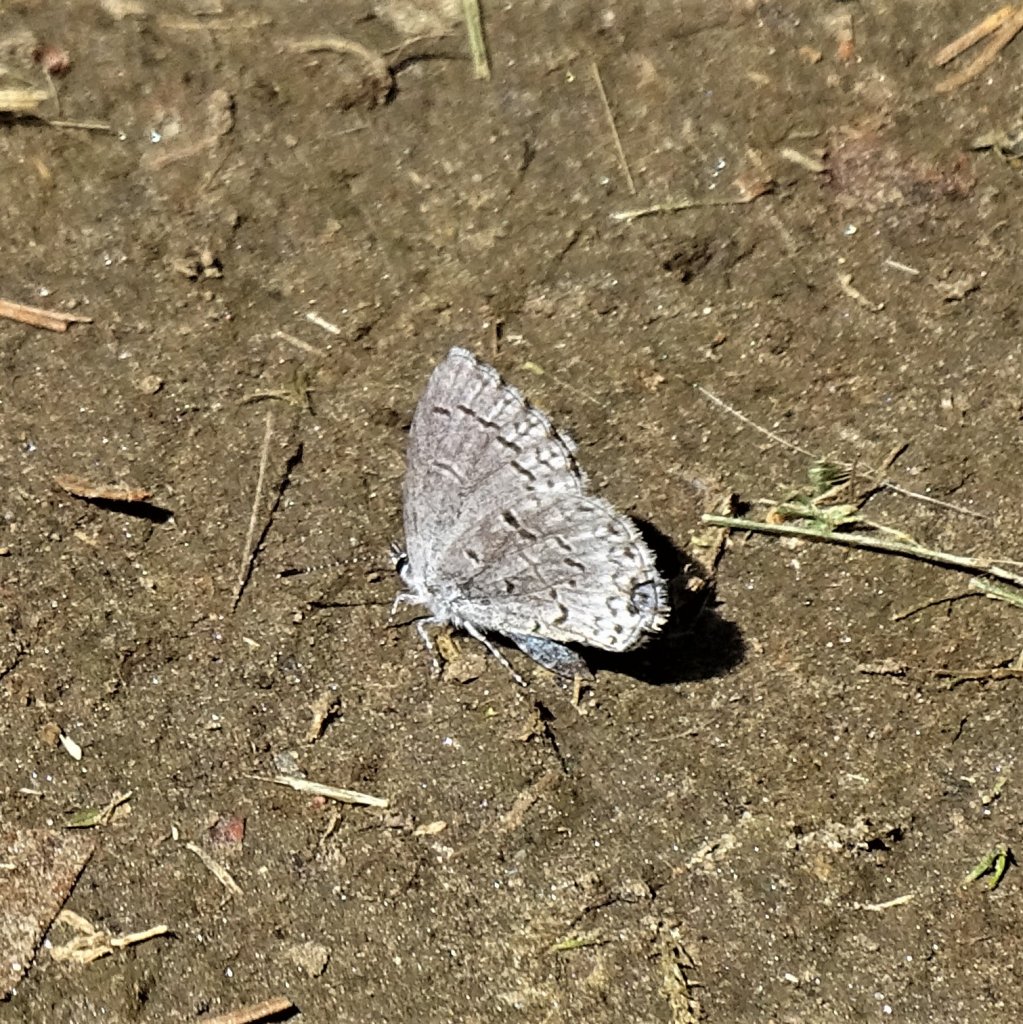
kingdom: Animalia
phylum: Arthropoda
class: Insecta
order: Lepidoptera
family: Lycaenidae
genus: Celastrina
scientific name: Celastrina lucia
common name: Northern Spring Azure
